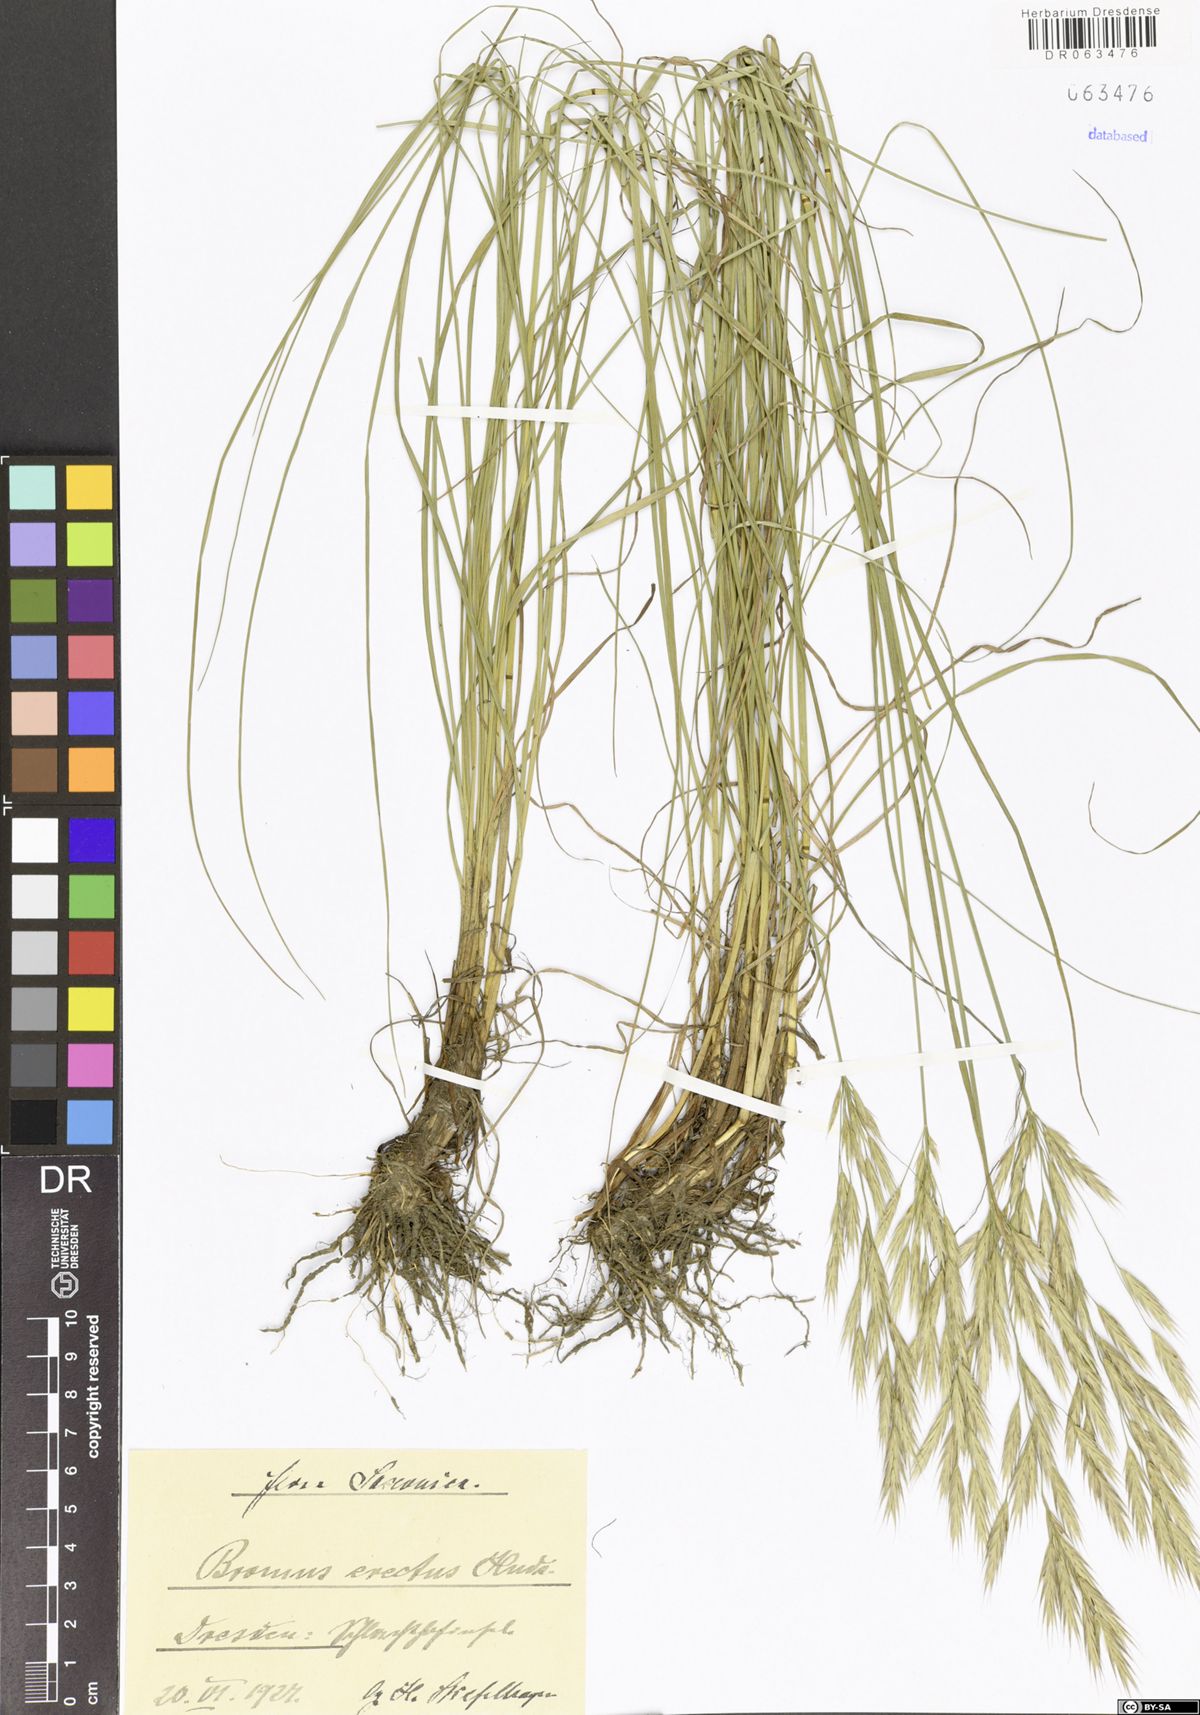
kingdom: Plantae
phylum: Tracheophyta
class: Liliopsida
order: Poales
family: Poaceae
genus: Bromus
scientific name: Bromus erectus
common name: Erect brome
